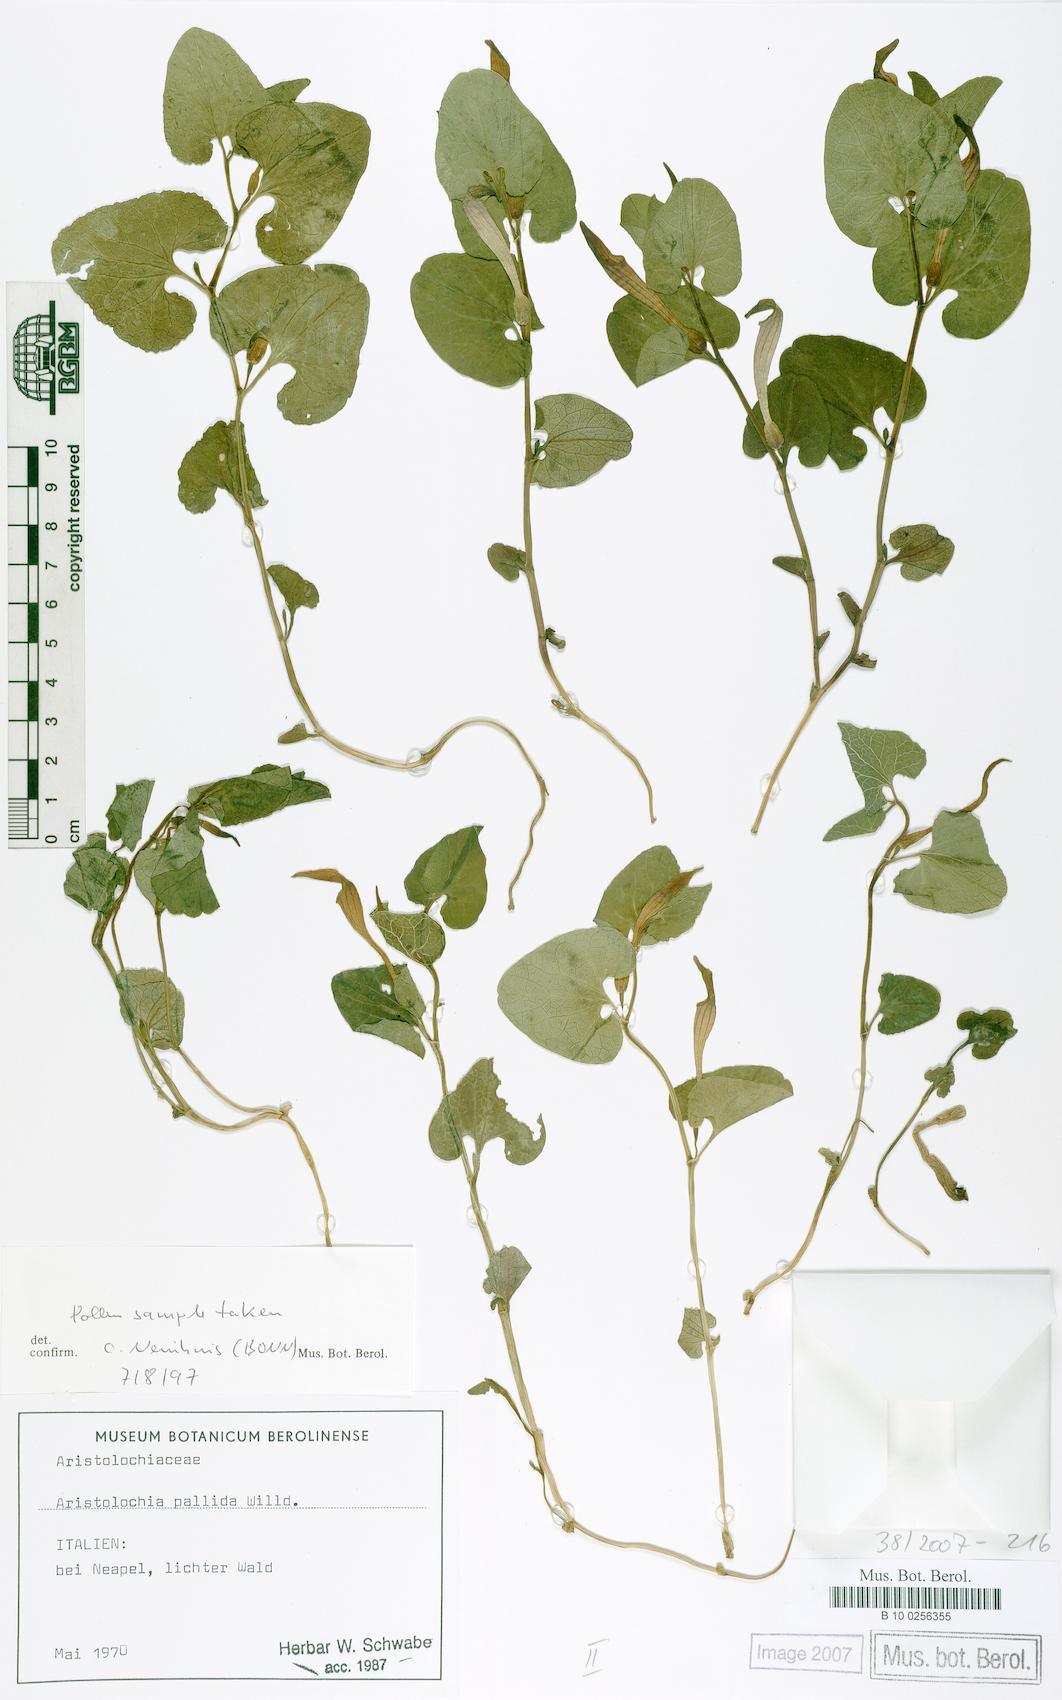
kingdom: Plantae
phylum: Tracheophyta
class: Magnoliopsida
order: Piperales
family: Aristolochiaceae
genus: Aristolochia
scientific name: Aristolochia pallida
